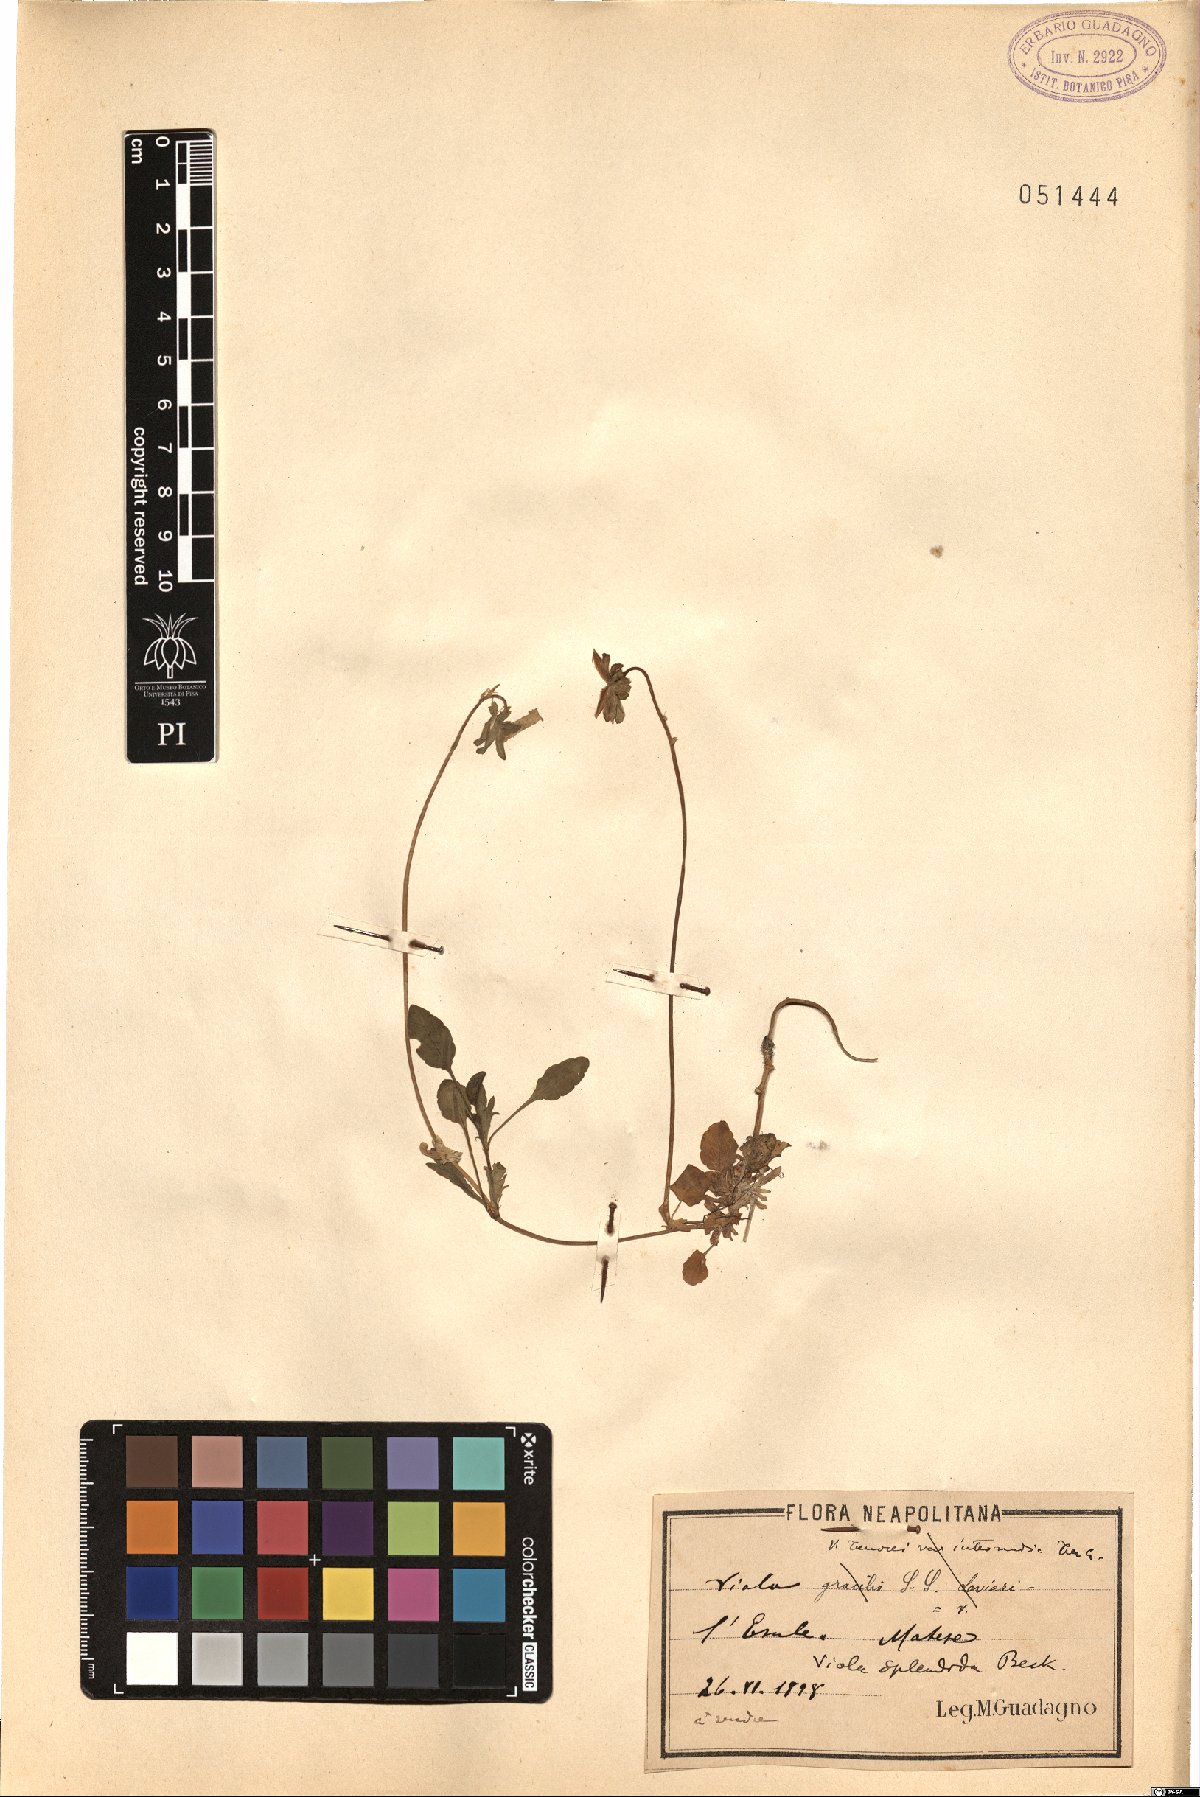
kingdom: Plantae
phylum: Tracheophyta
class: Magnoliopsida
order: Malpighiales
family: Violaceae
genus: Viola
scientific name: Viola aethnensis
